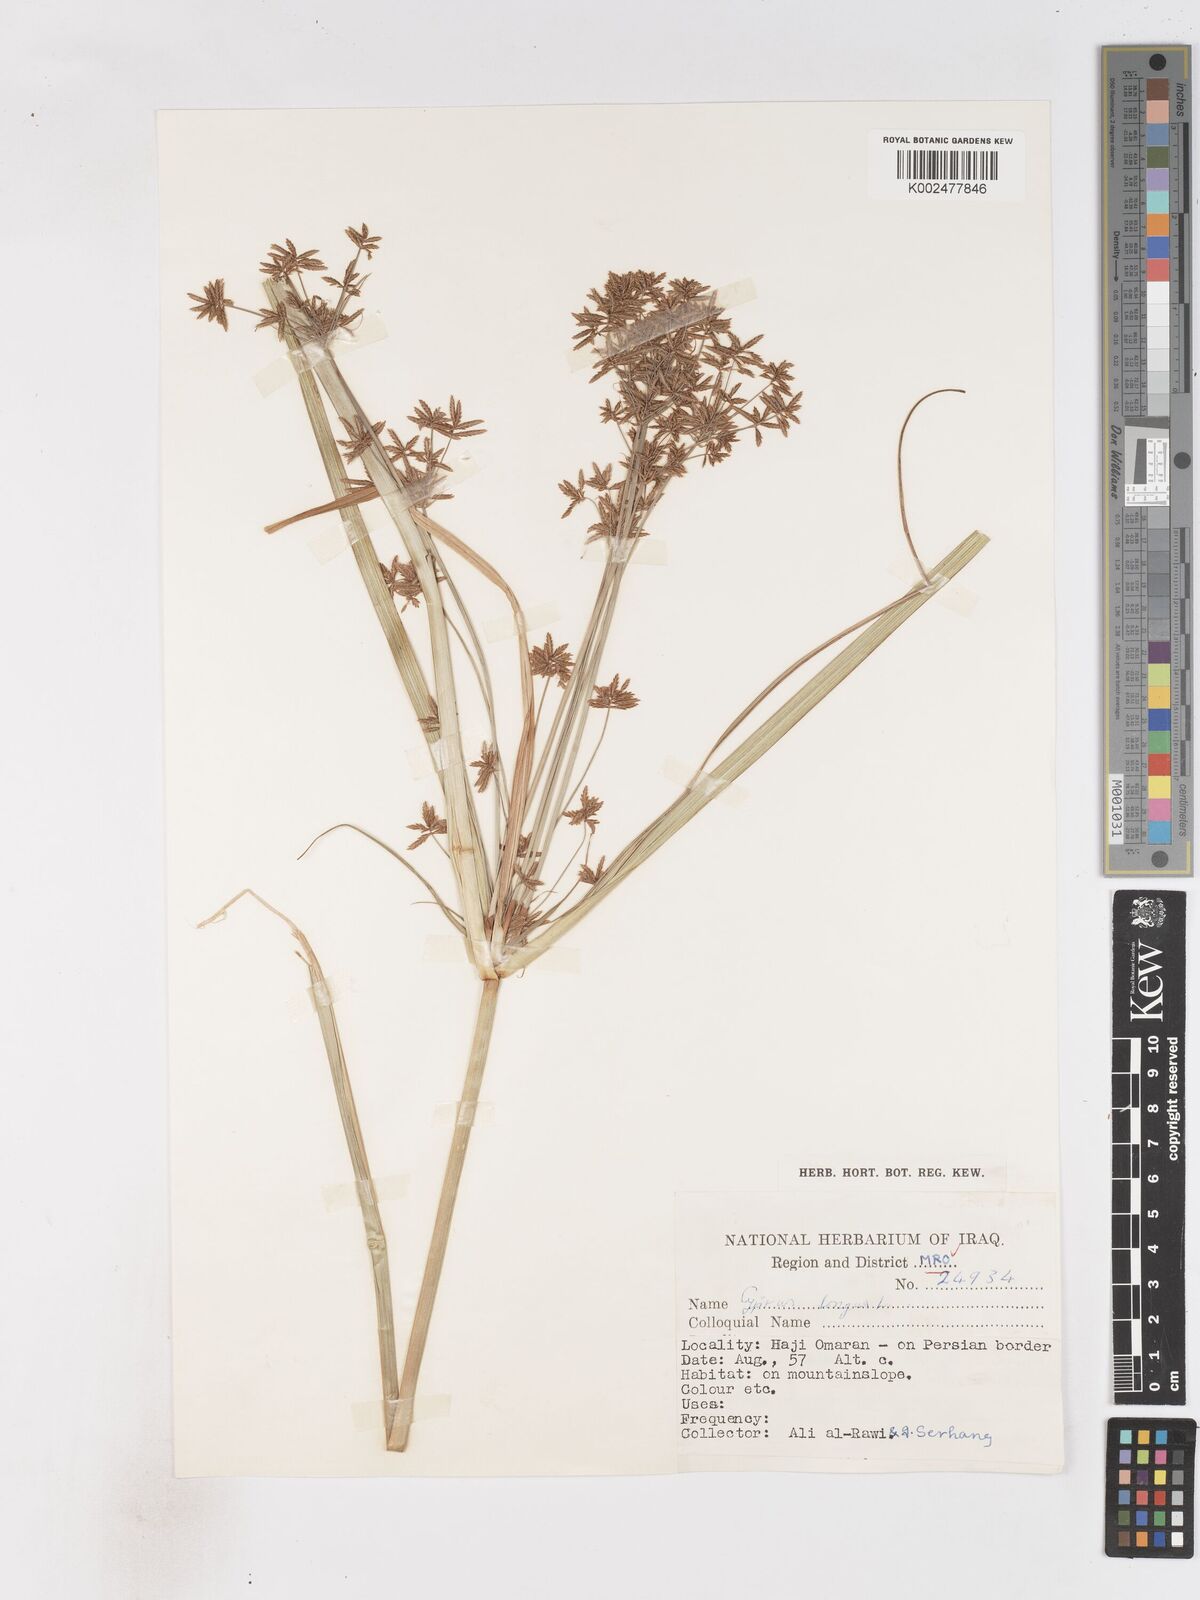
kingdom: Plantae
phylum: Tracheophyta
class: Liliopsida
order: Poales
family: Cyperaceae
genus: Cyperus
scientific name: Cyperus longus
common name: Galingale
